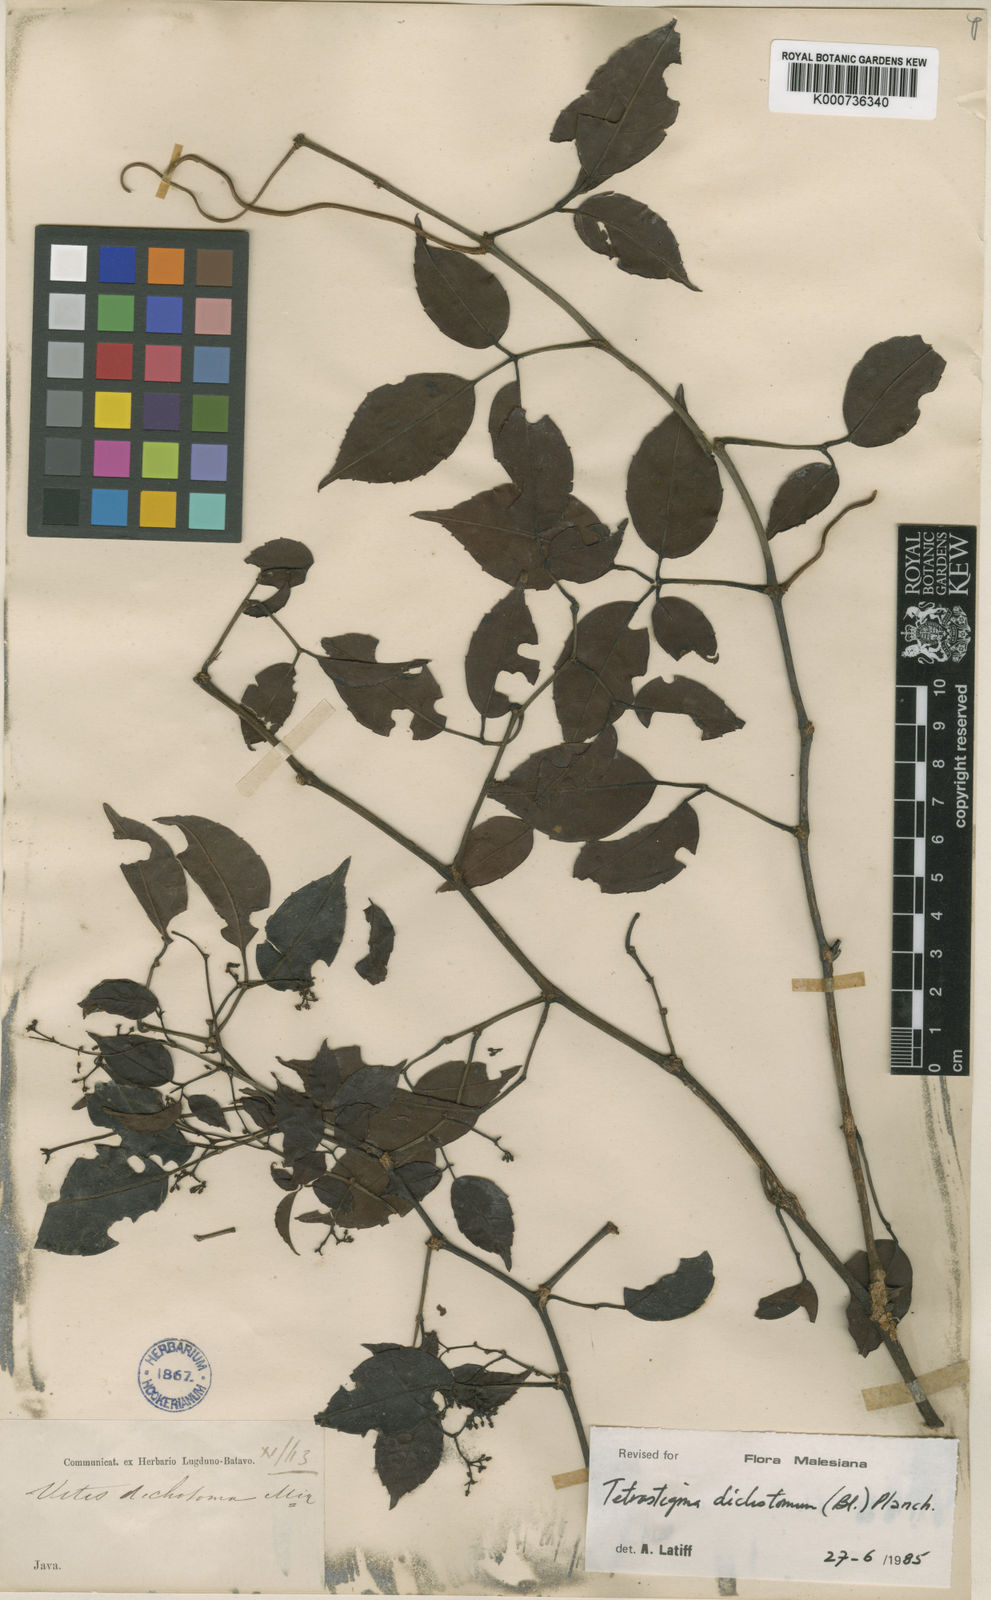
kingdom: Plantae
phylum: Tracheophyta
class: Magnoliopsida
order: Vitales
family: Vitaceae
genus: Tetrastigma
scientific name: Tetrastigma dichotomum
